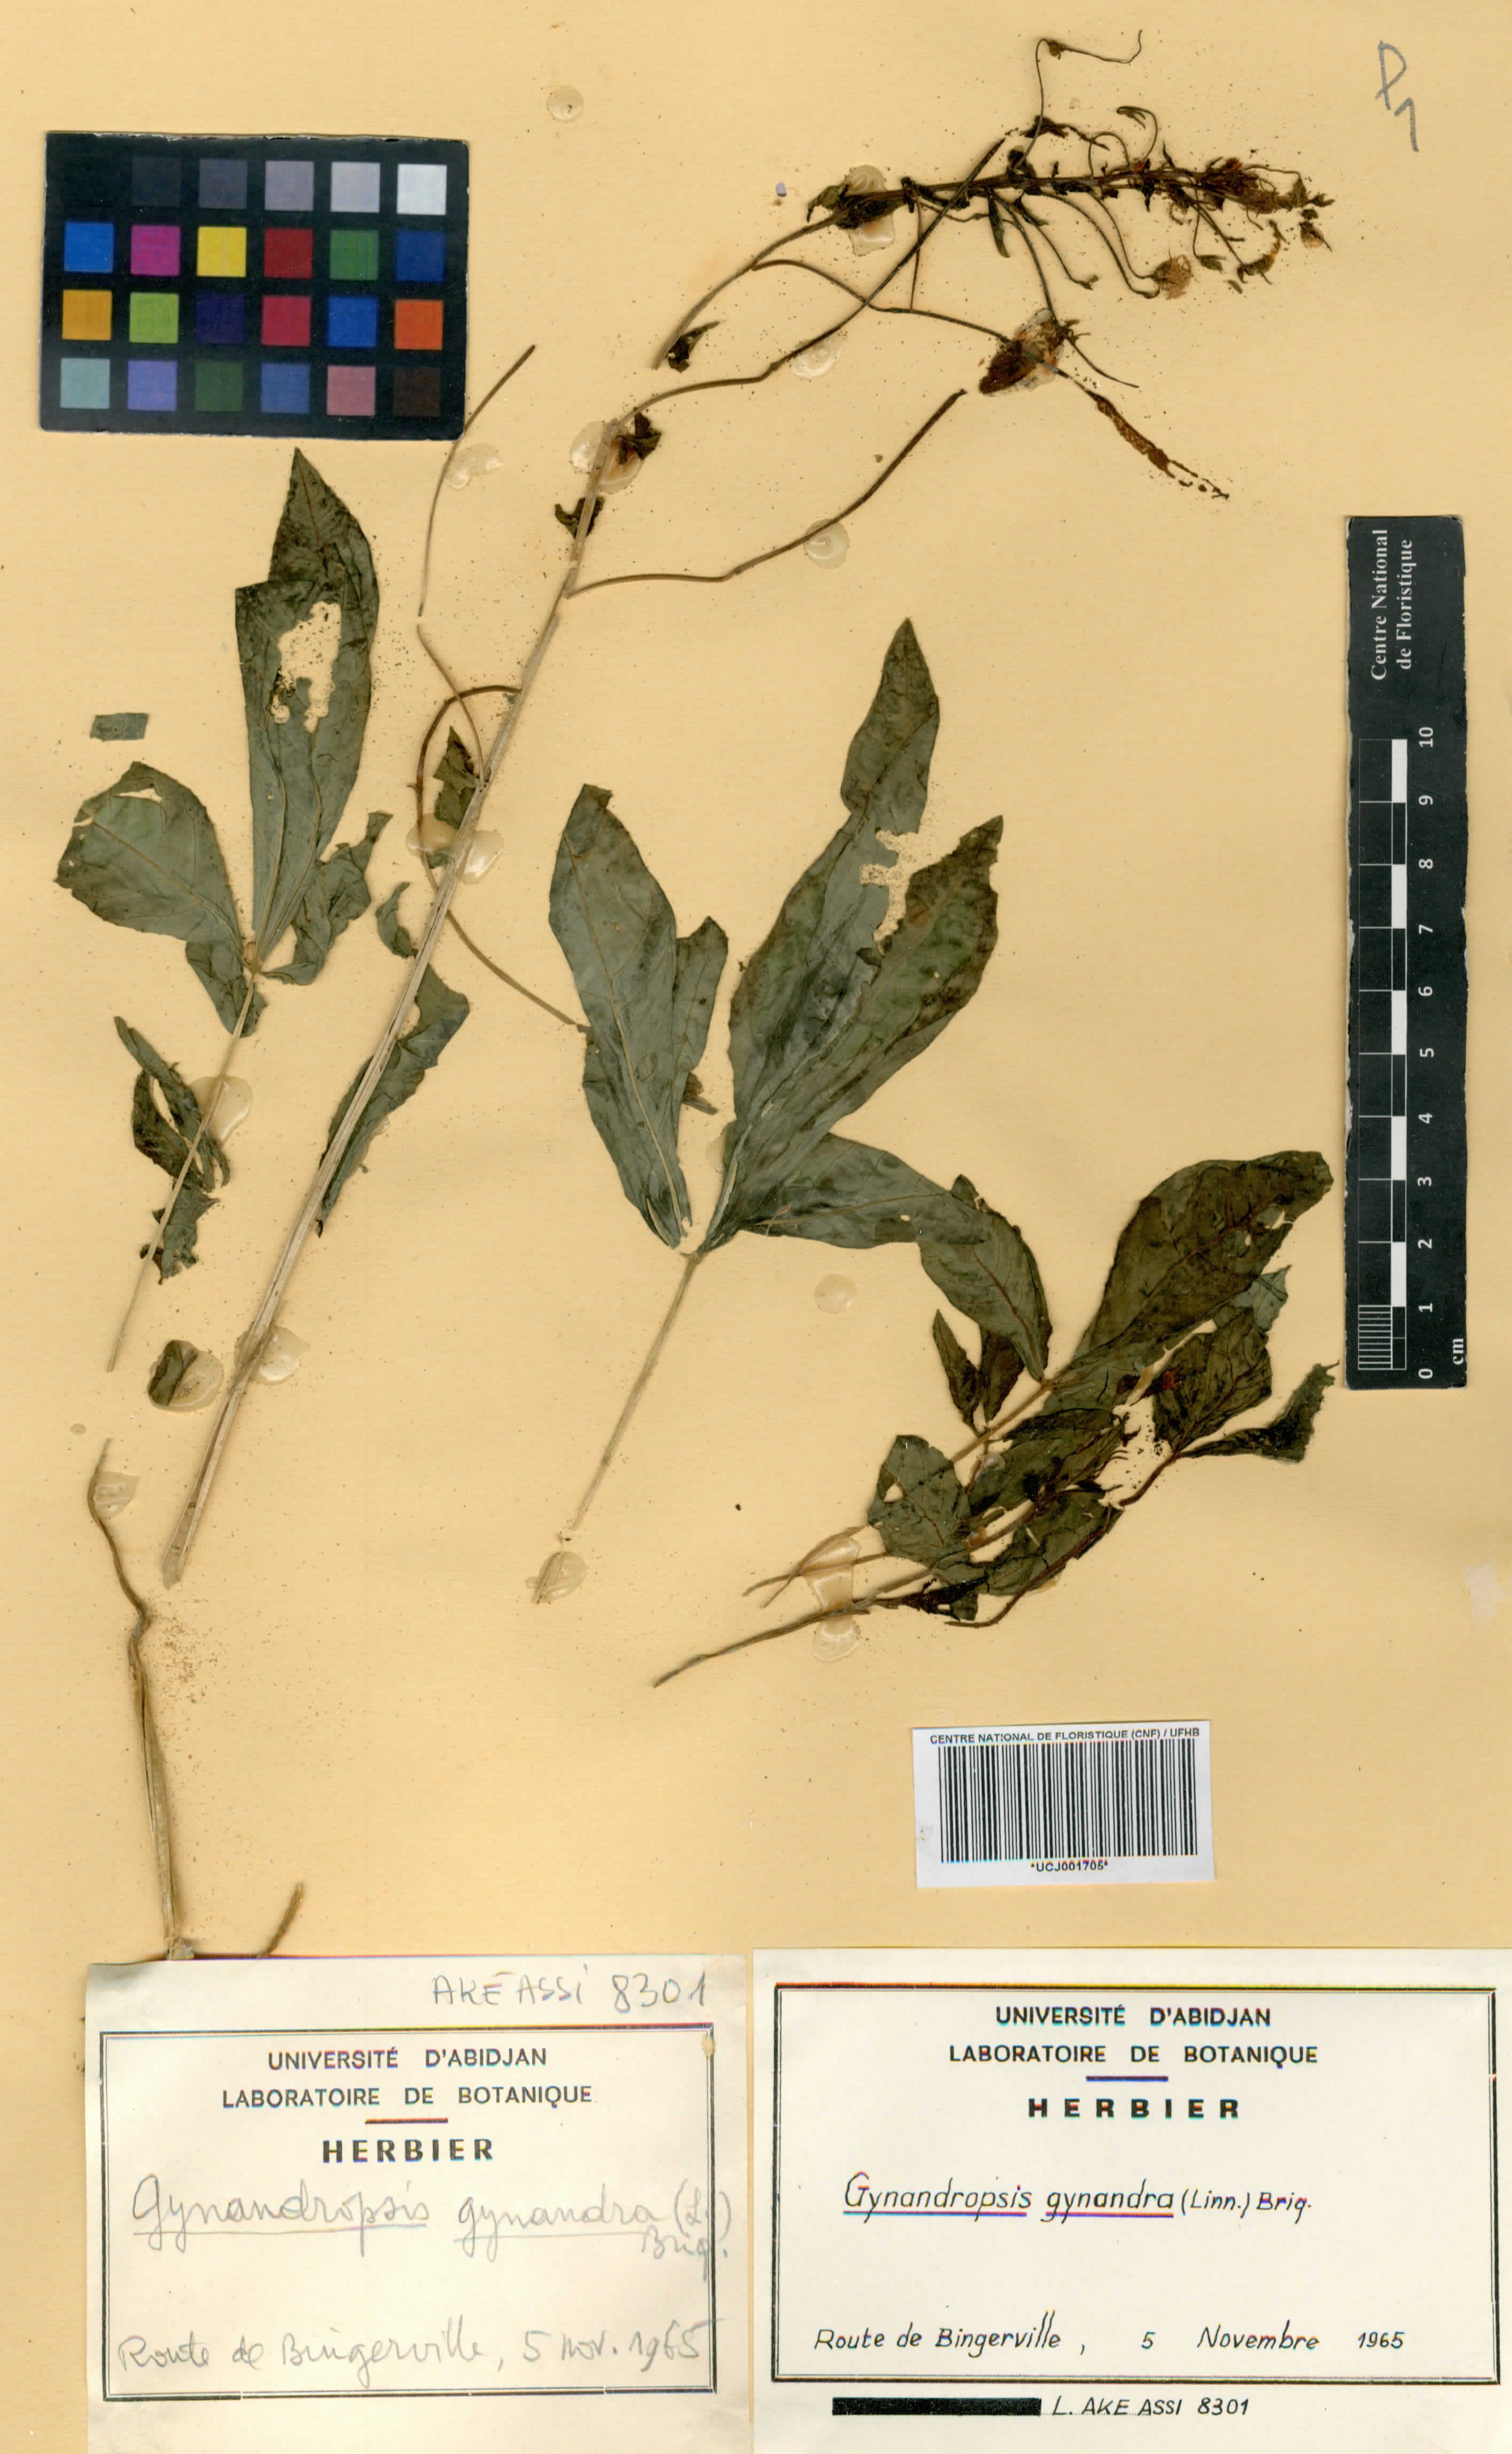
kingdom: Plantae
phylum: Tracheophyta
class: Magnoliopsida
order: Brassicales
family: Cleomaceae
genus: Gynandropsis
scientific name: Gynandropsis gynandra
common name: Spiderwisp
